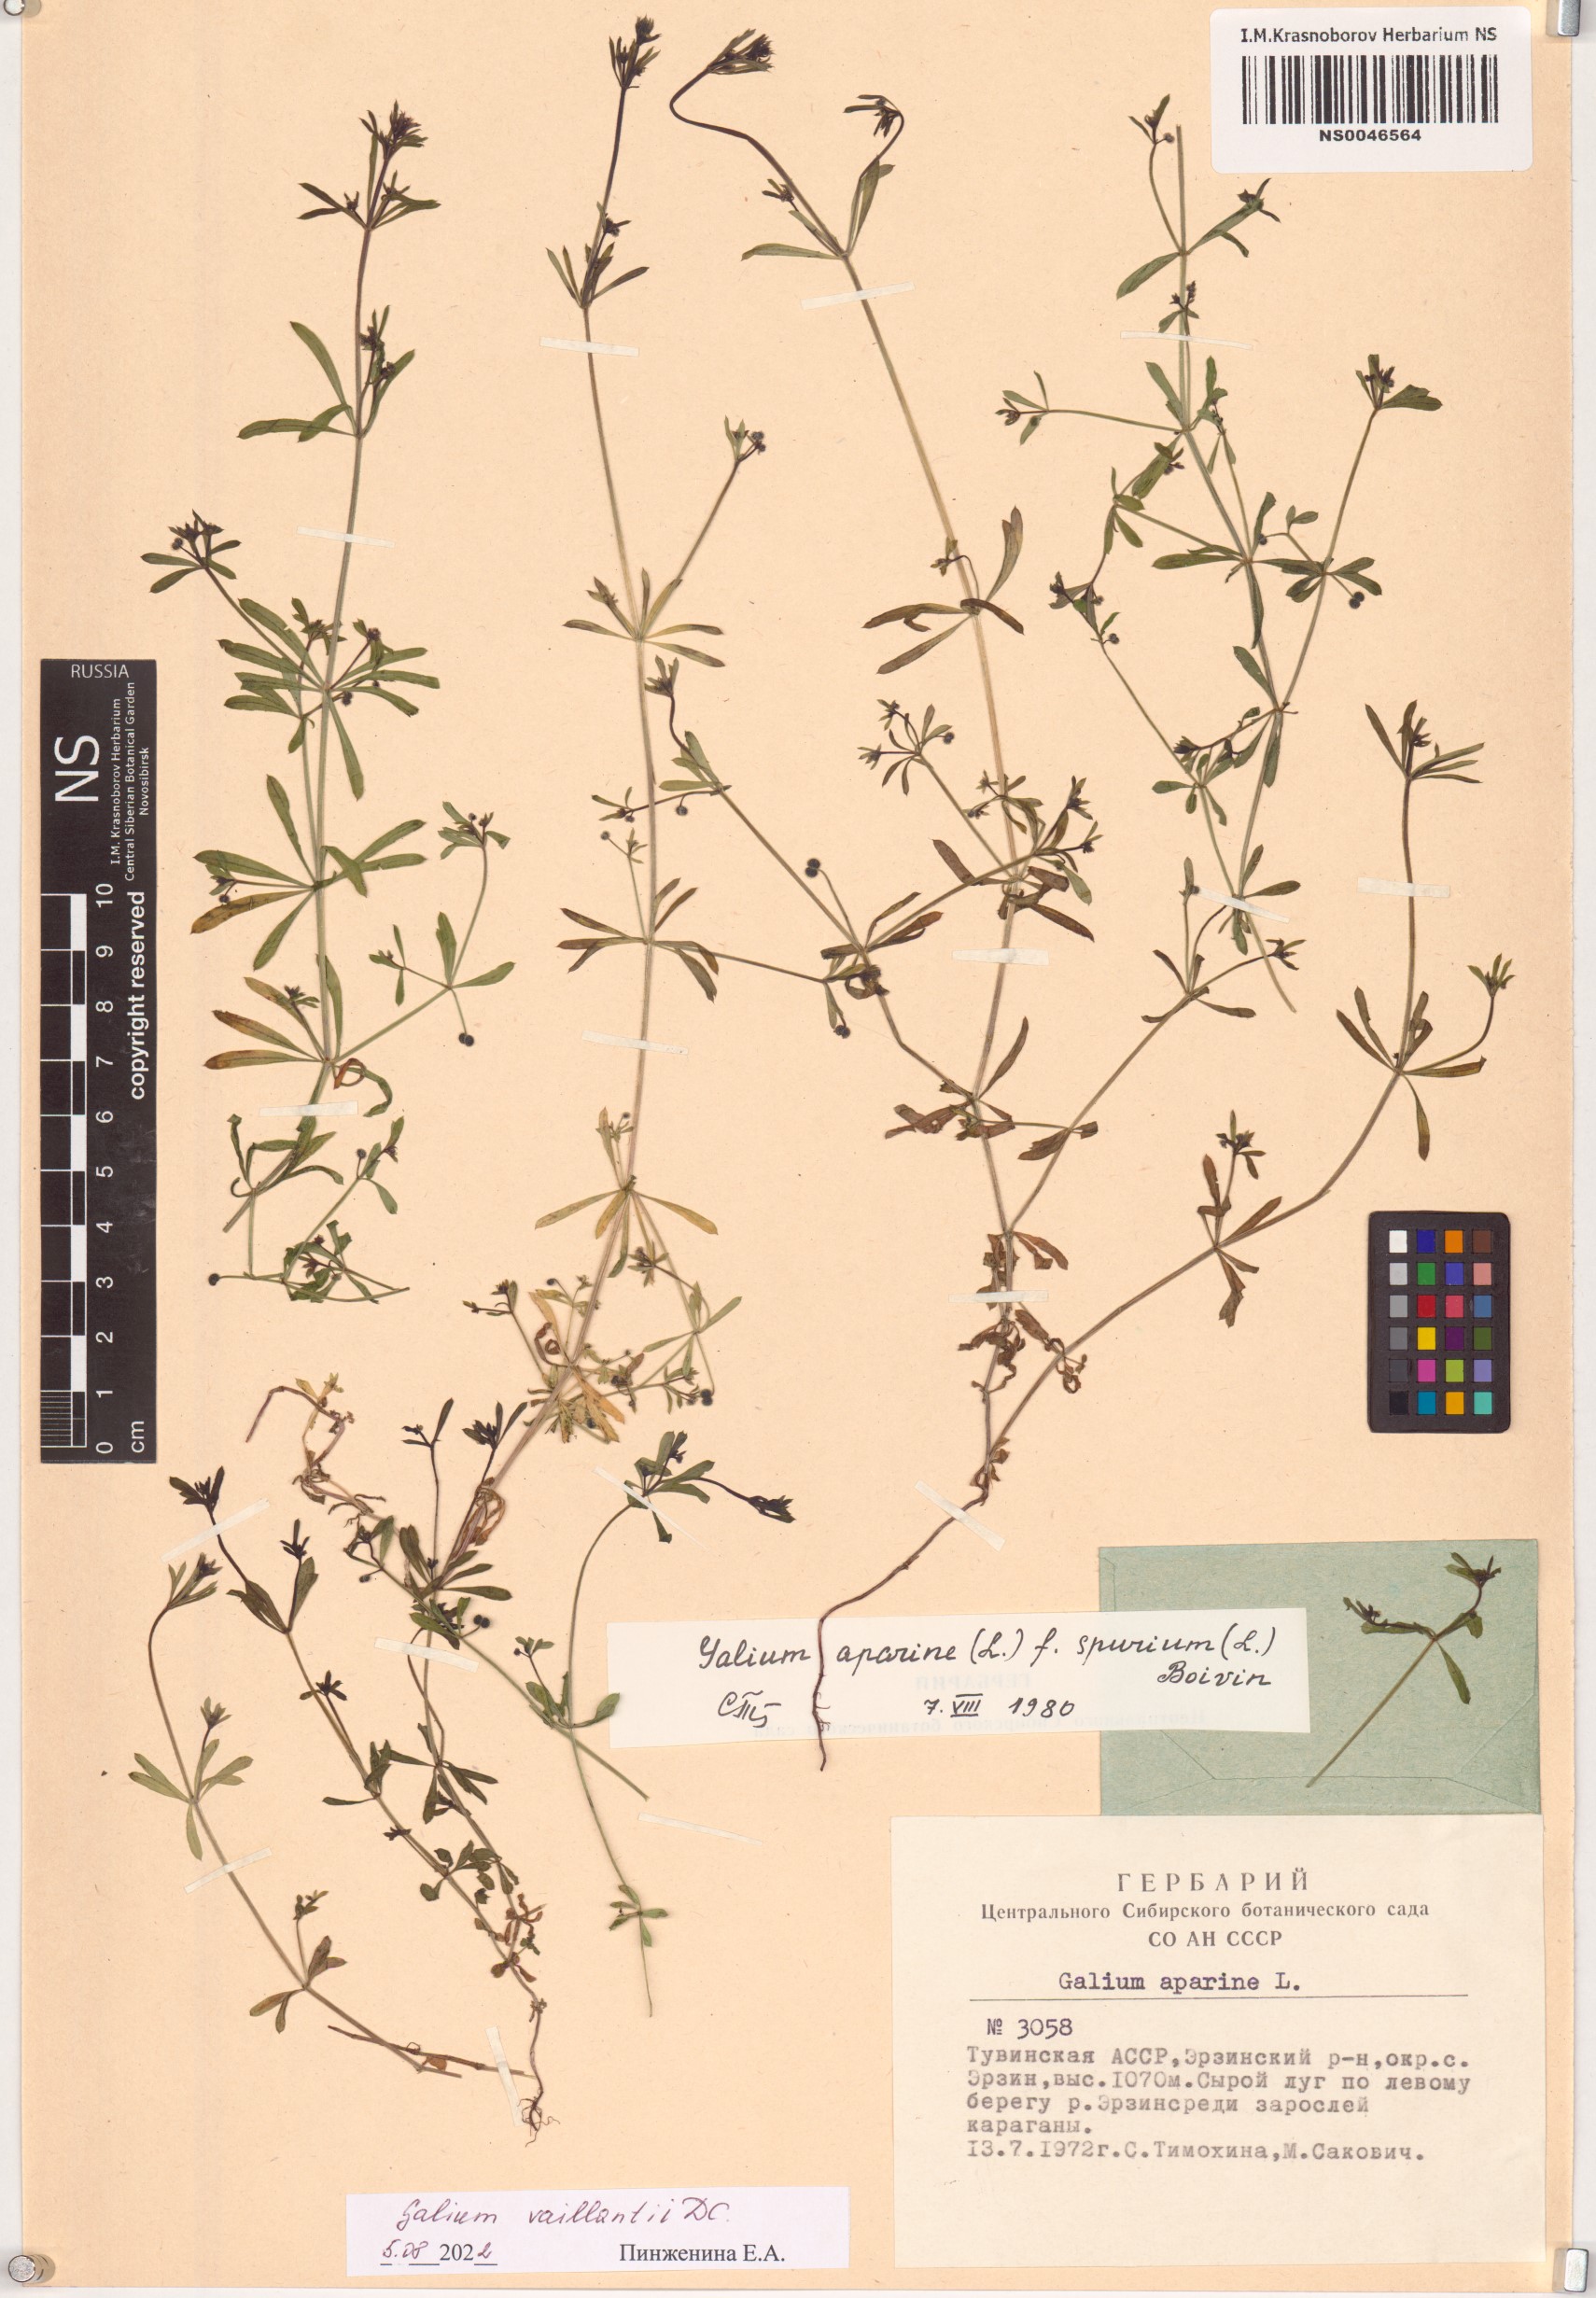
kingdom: Plantae
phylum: Tracheophyta
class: Magnoliopsida
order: Gentianales
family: Rubiaceae
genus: Galium
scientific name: Galium spurium
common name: False cleavers
